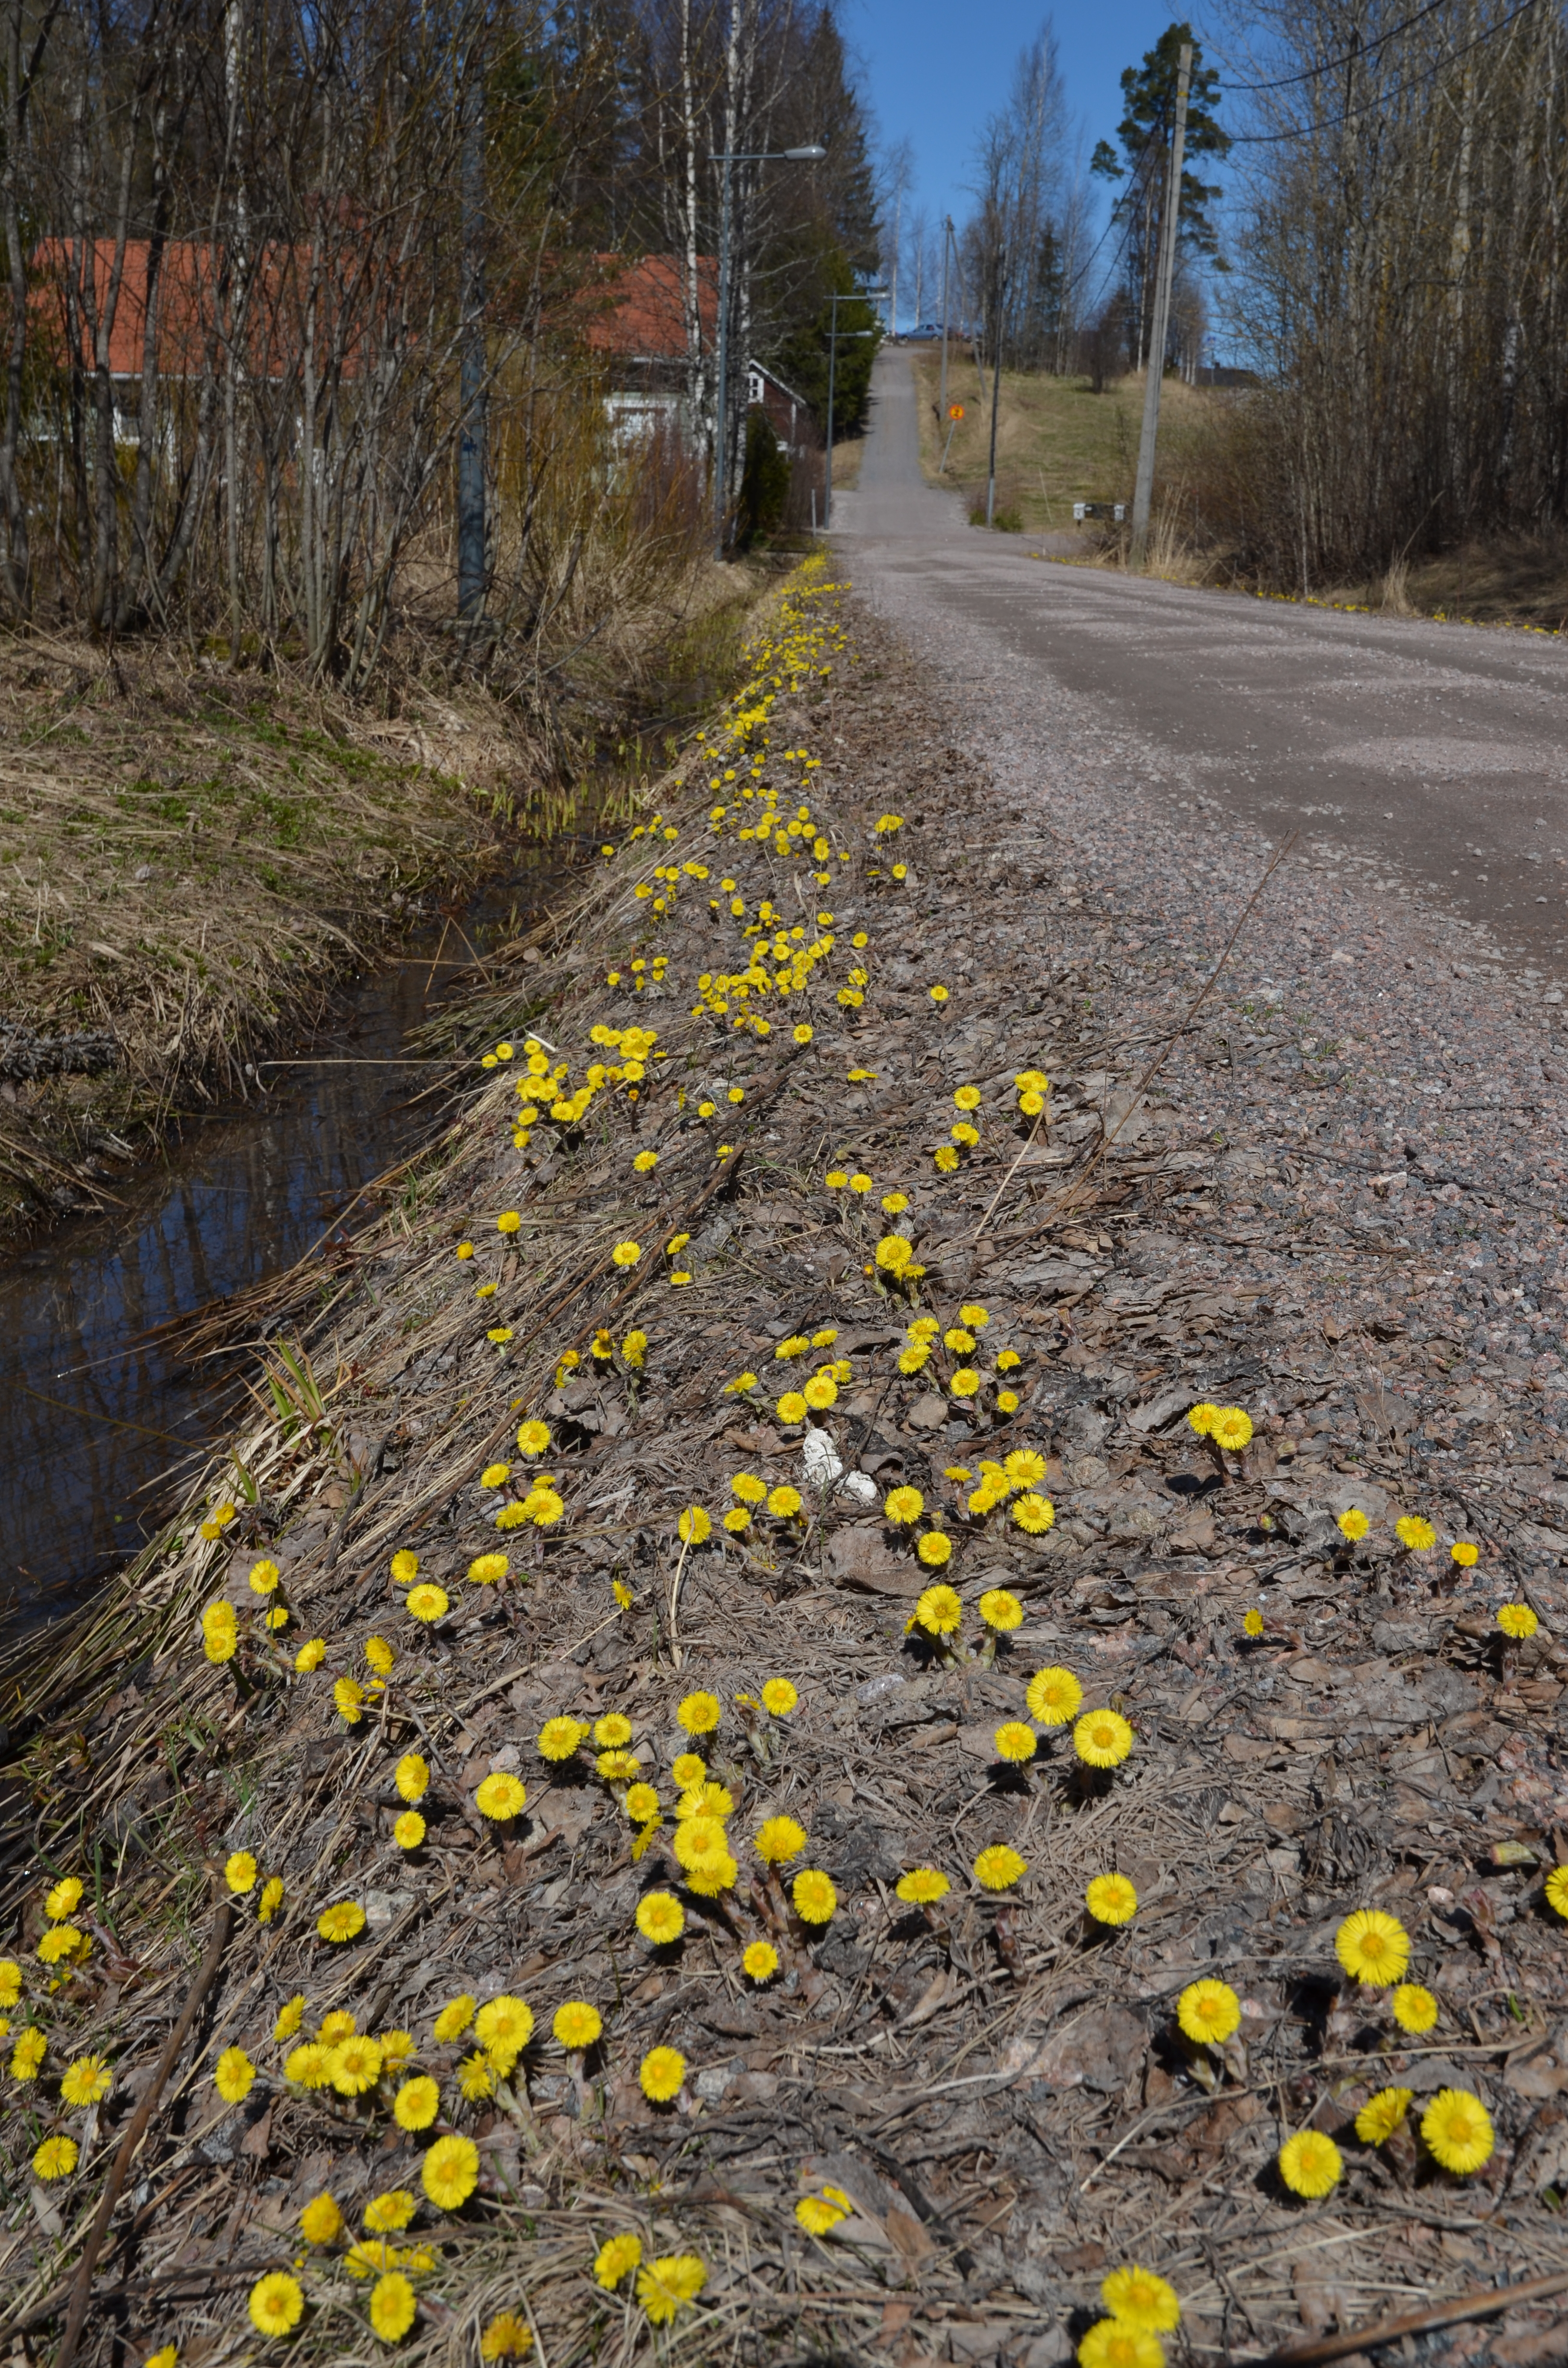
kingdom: Plantae
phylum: Tracheophyta
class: Magnoliopsida
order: Asterales
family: Asteraceae
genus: Tussilago
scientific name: Tussilago farfara
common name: Coltsfoot
